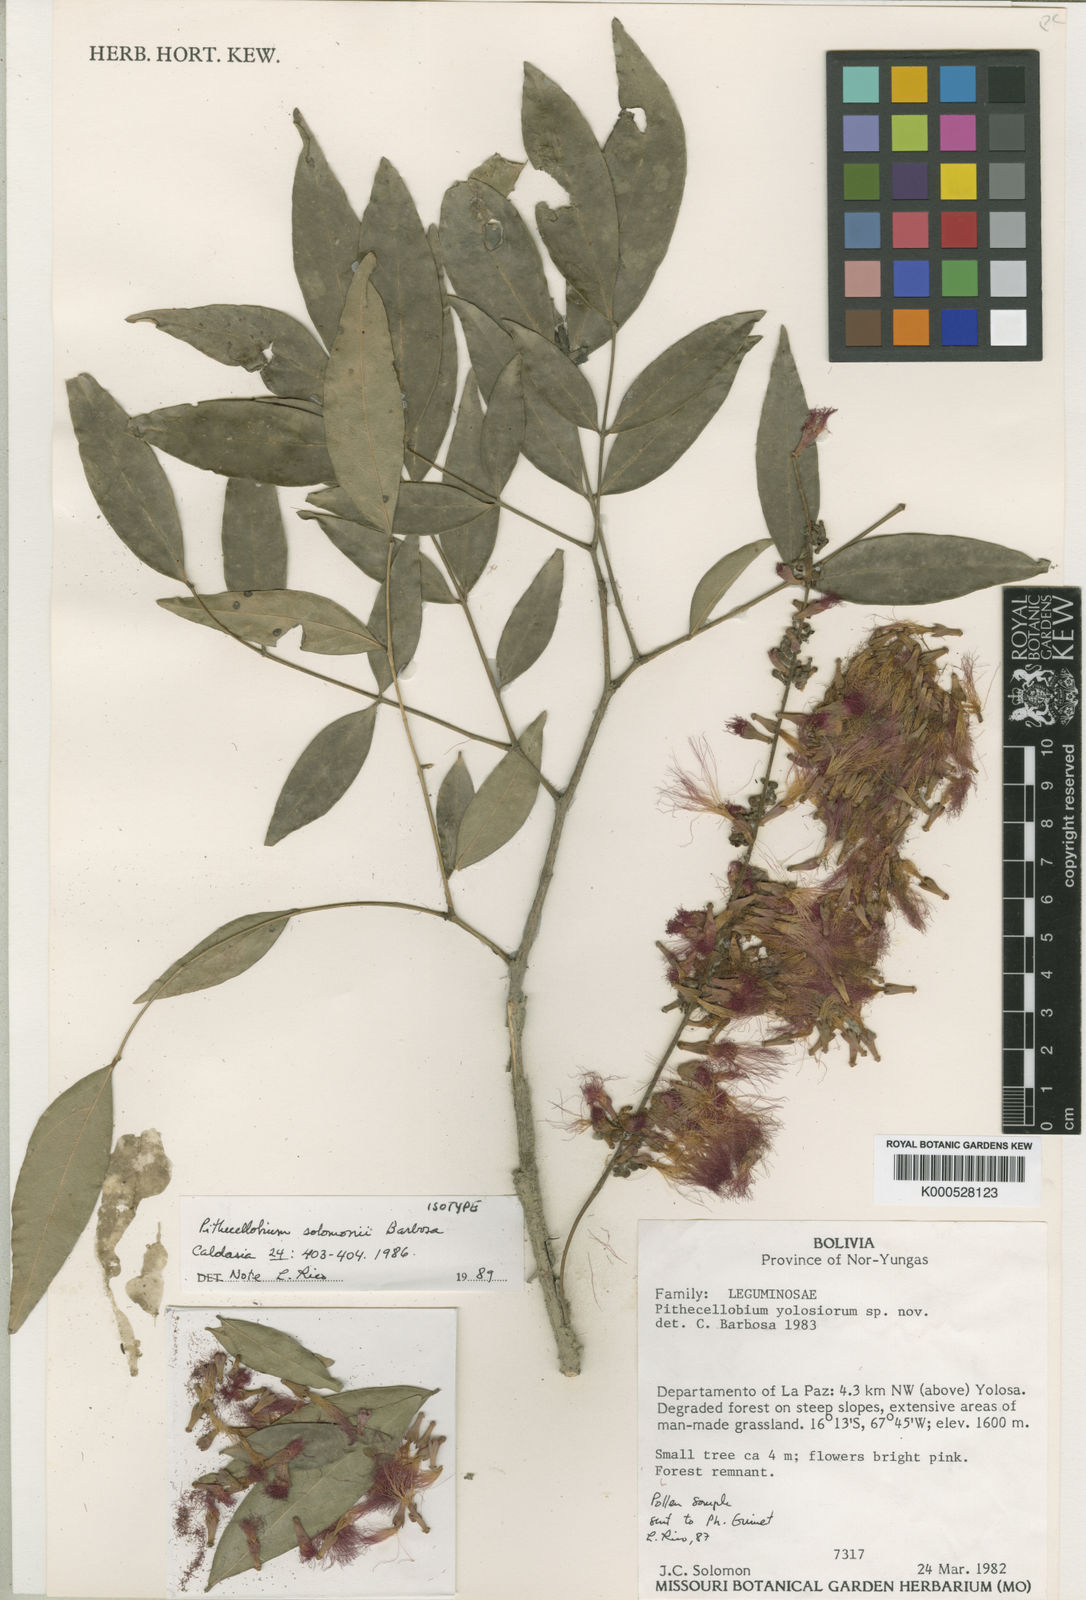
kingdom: Plantae
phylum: Tracheophyta
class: Magnoliopsida
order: Fabales
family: Fabaceae
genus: Zygia
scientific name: Zygia coccinea
